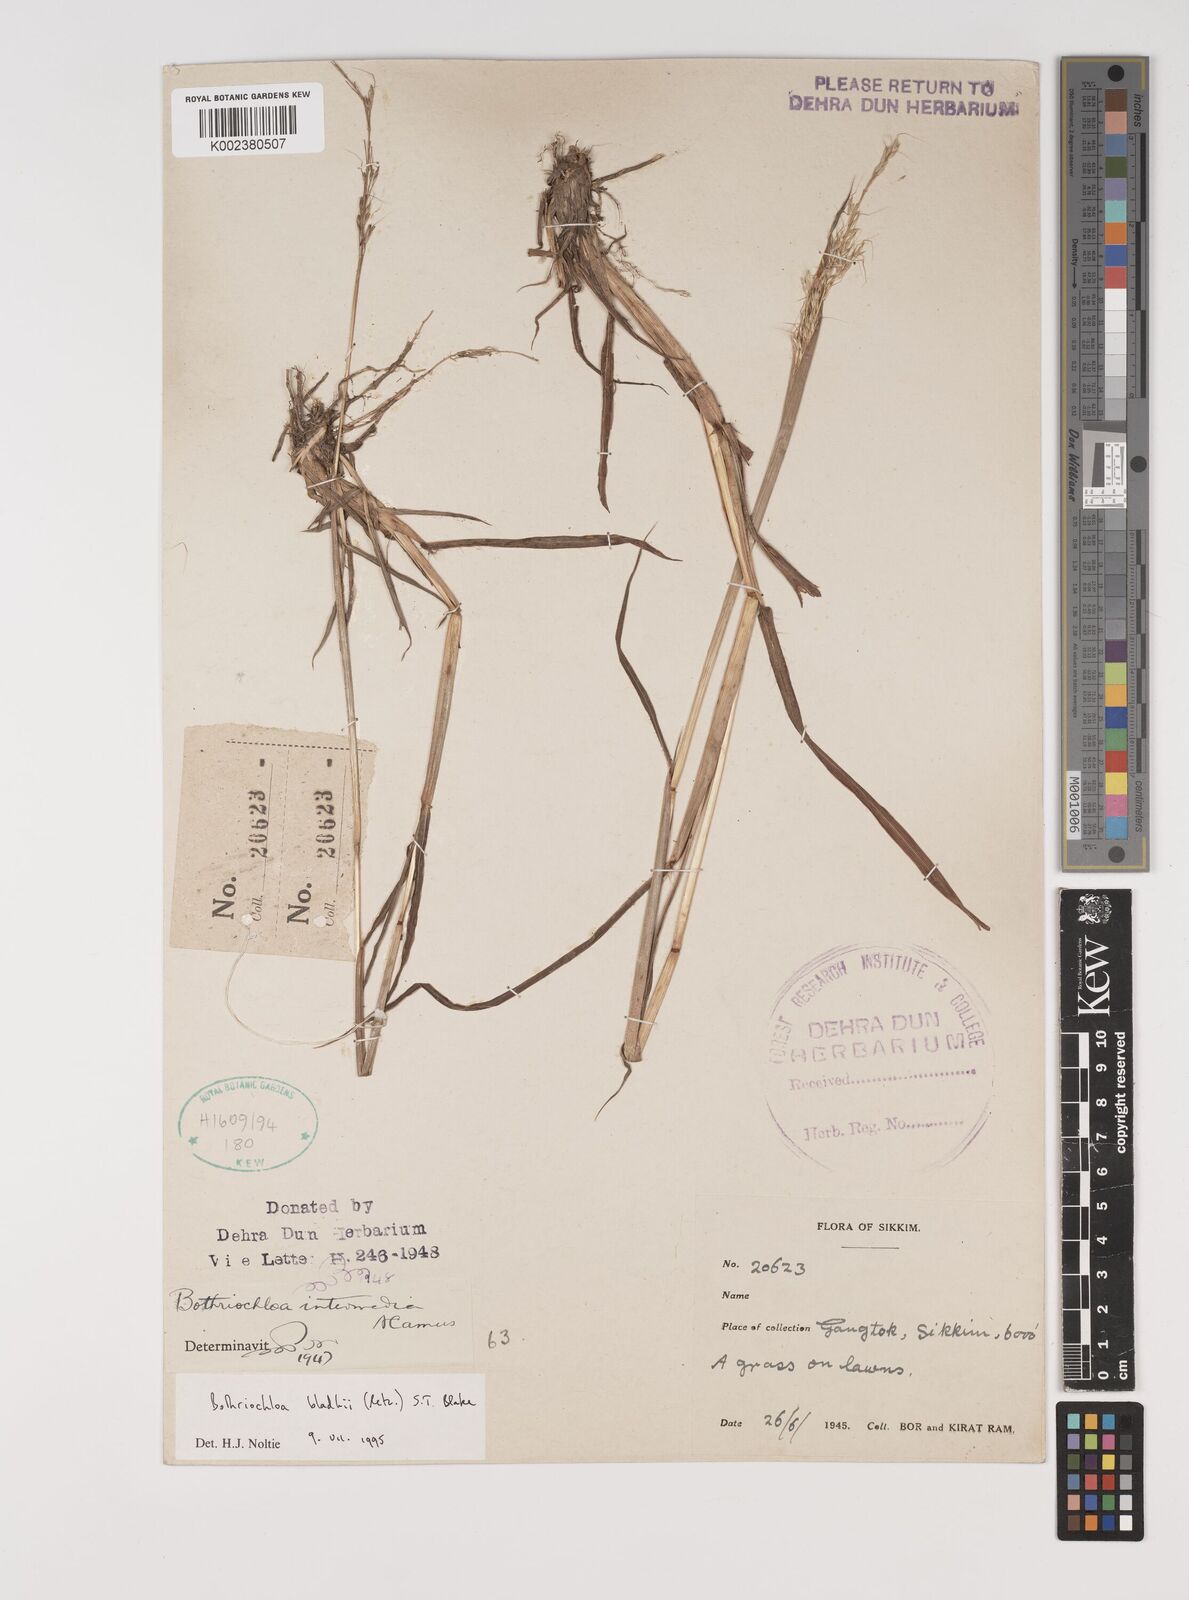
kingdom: Plantae
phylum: Tracheophyta
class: Liliopsida
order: Poales
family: Poaceae
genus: Bothriochloa
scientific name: Bothriochloa bladhii
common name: Caucasian bluestem
